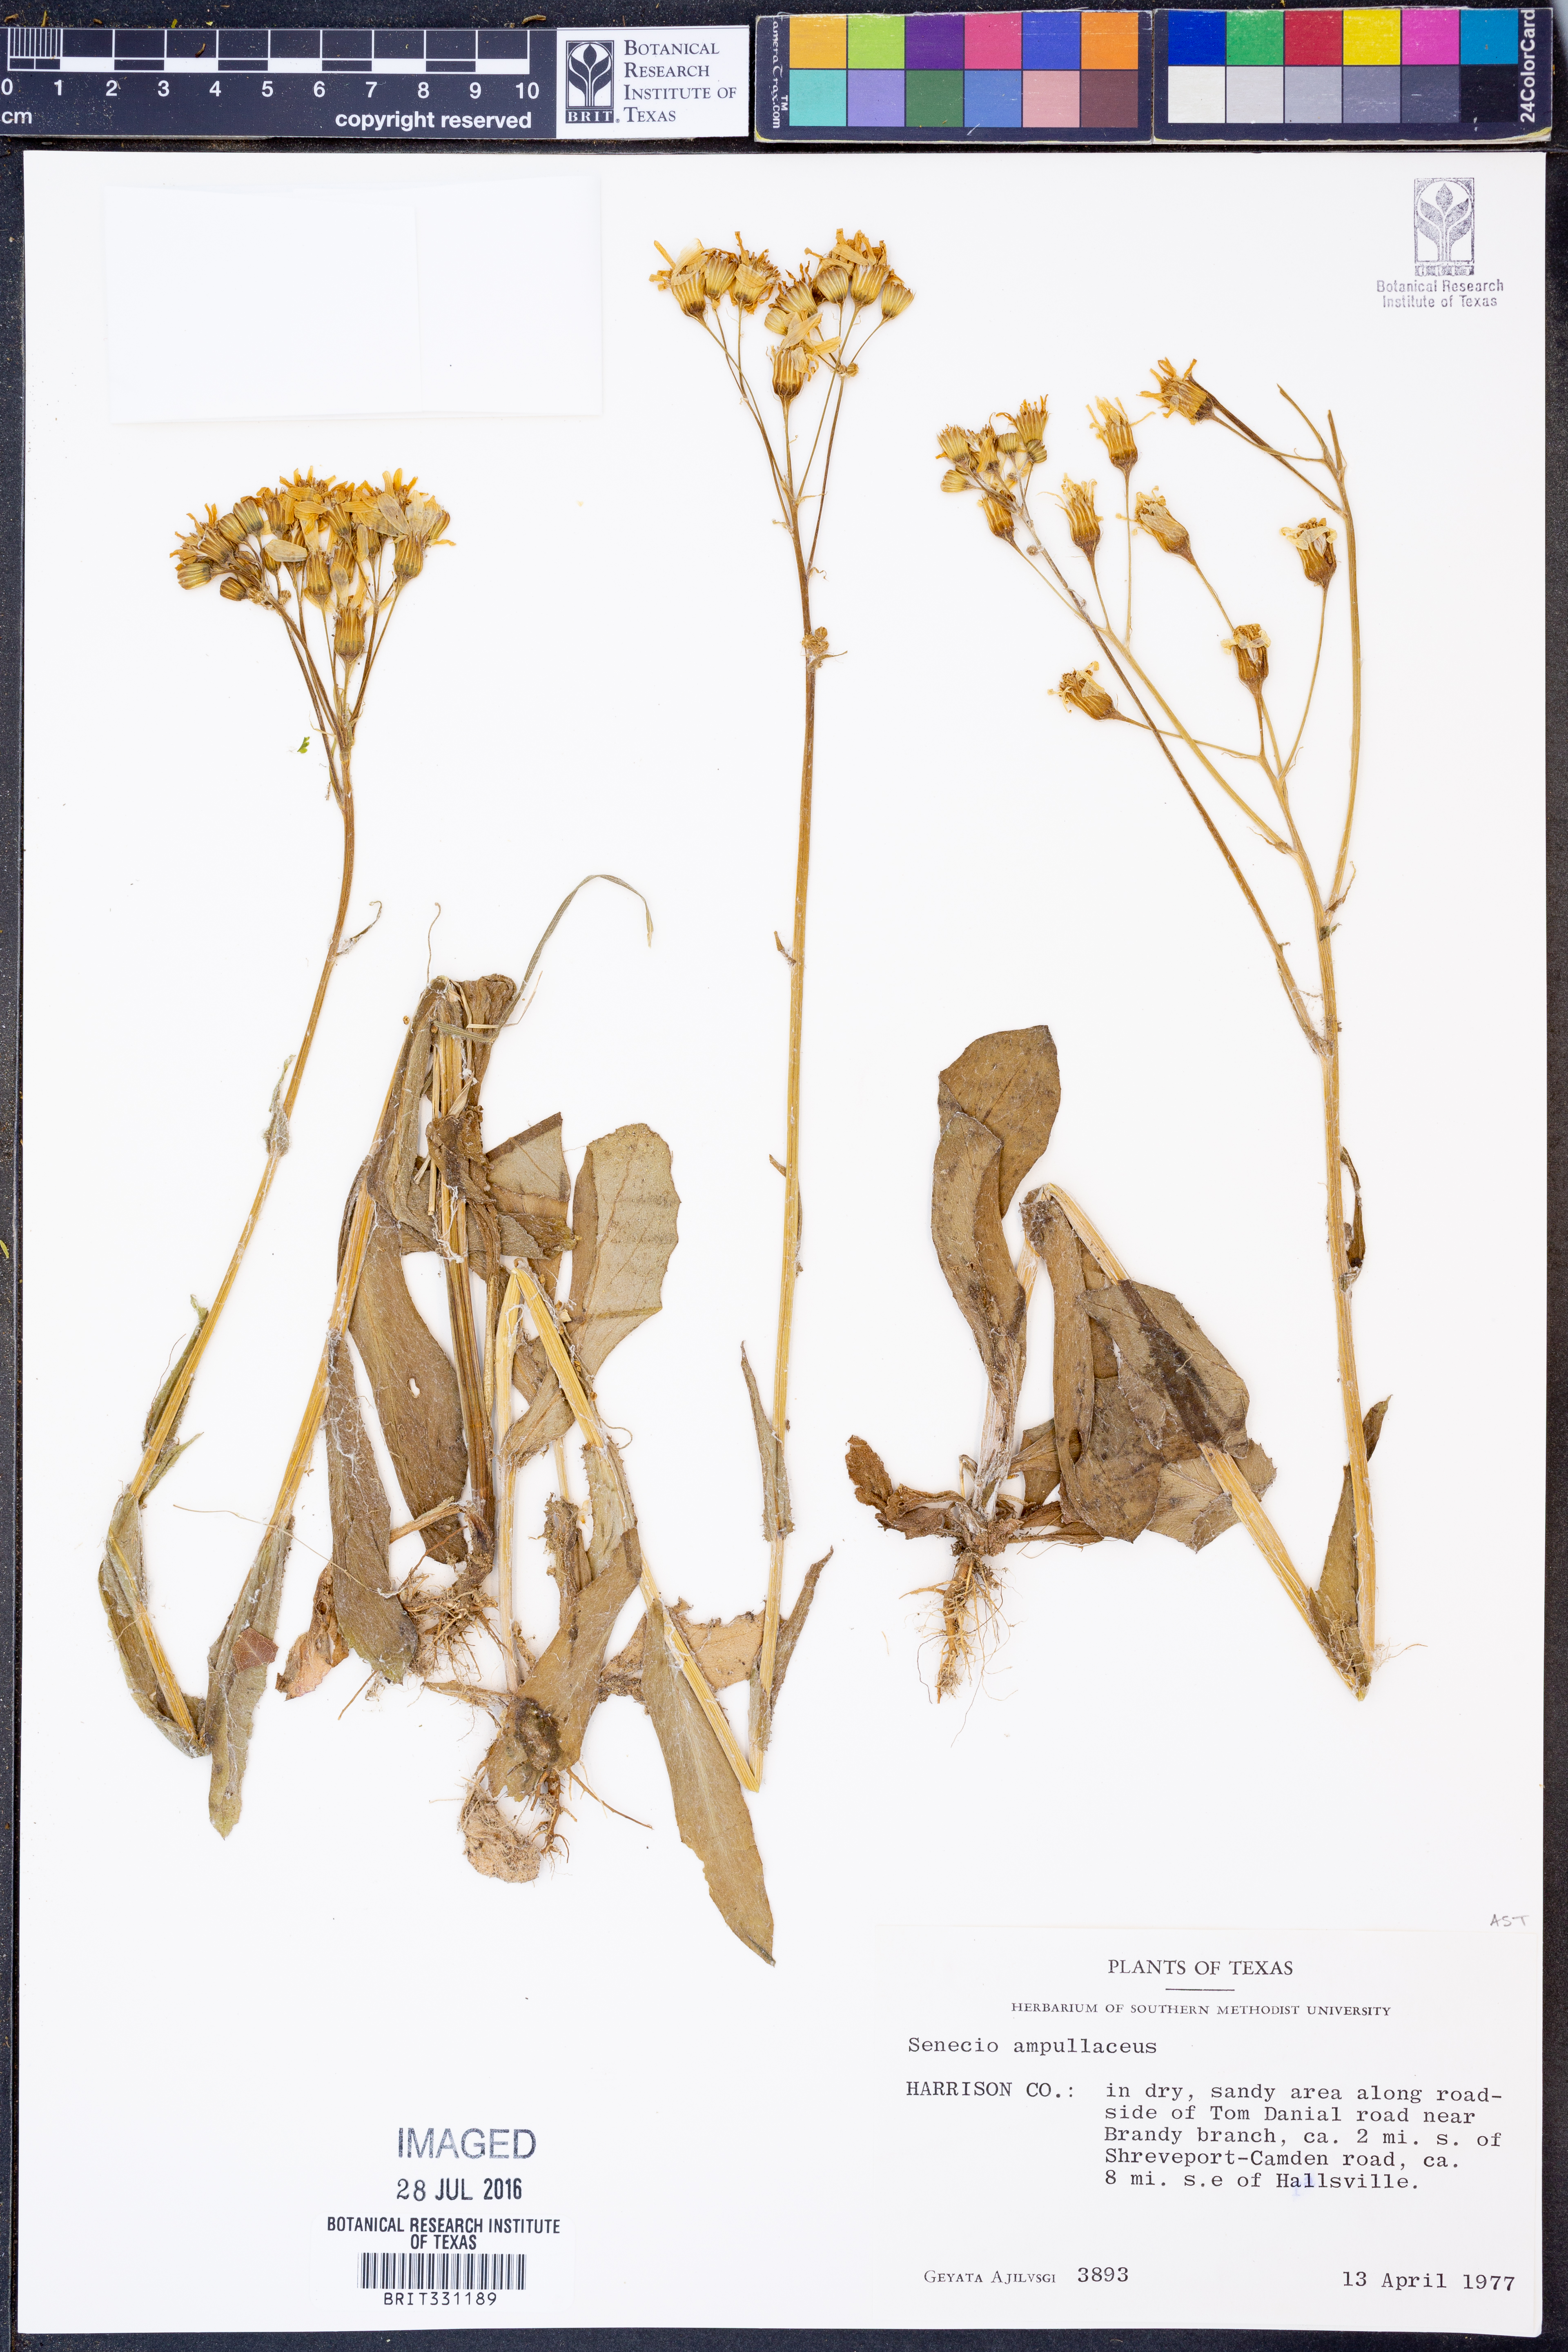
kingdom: Plantae
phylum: Tracheophyta
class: Magnoliopsida
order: Asterales
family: Asteraceae
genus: Senecio
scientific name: Senecio ampullaceus
